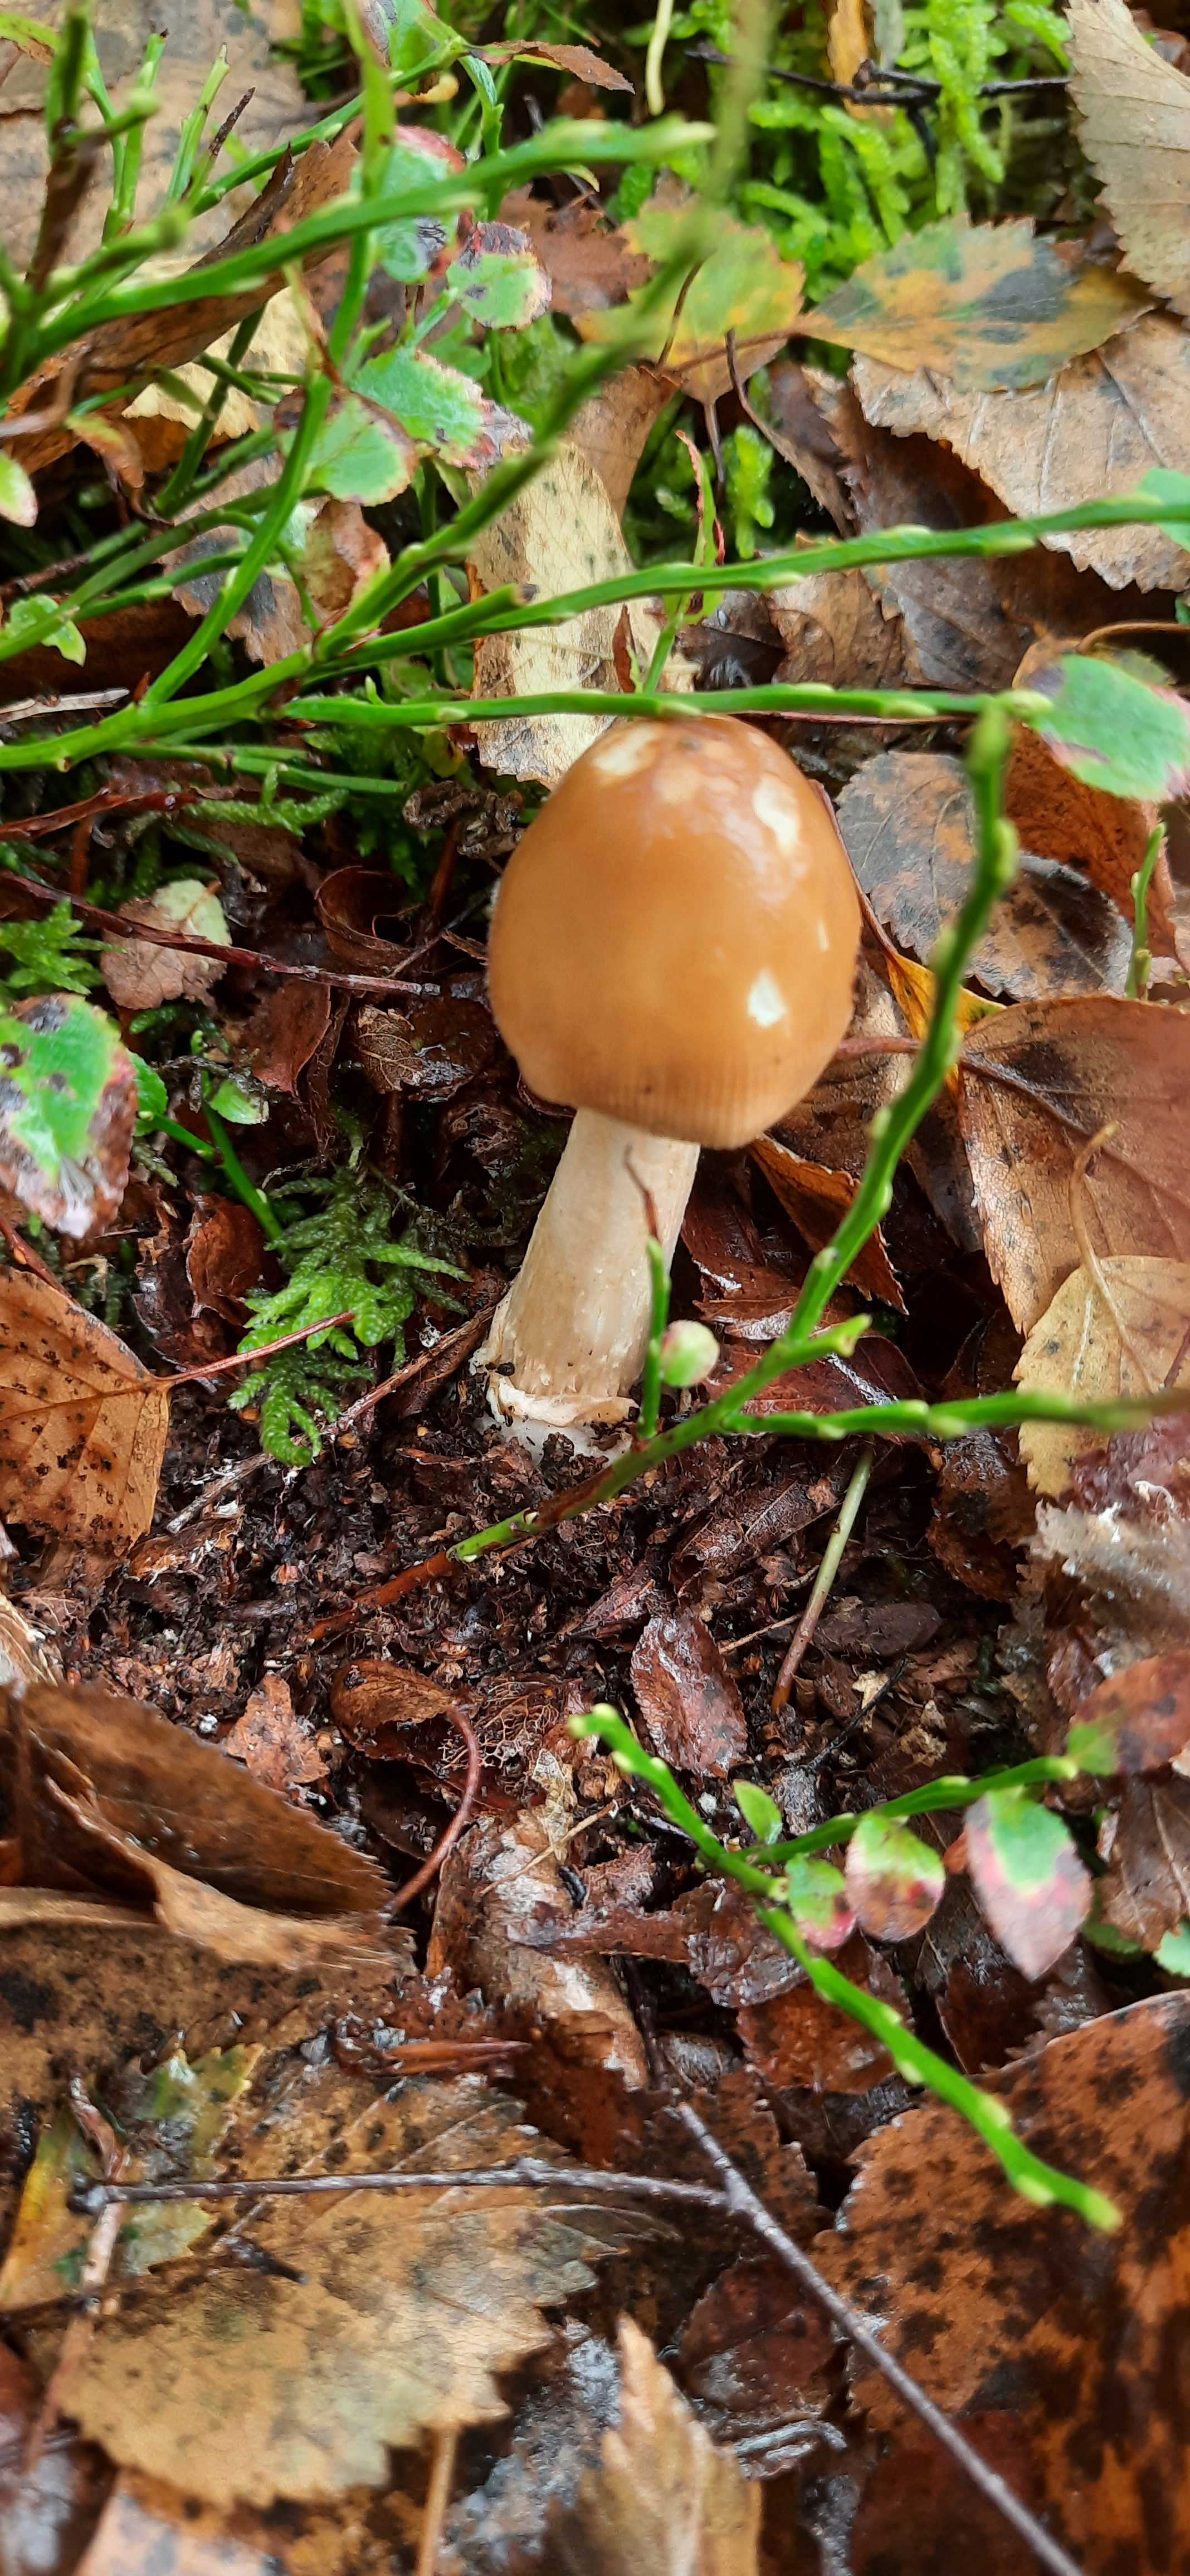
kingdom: Fungi
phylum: Basidiomycota
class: Agaricomycetes
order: Agaricales
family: Amanitaceae
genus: Amanita
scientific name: Amanita fulva
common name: brun kam-fluesvamp
